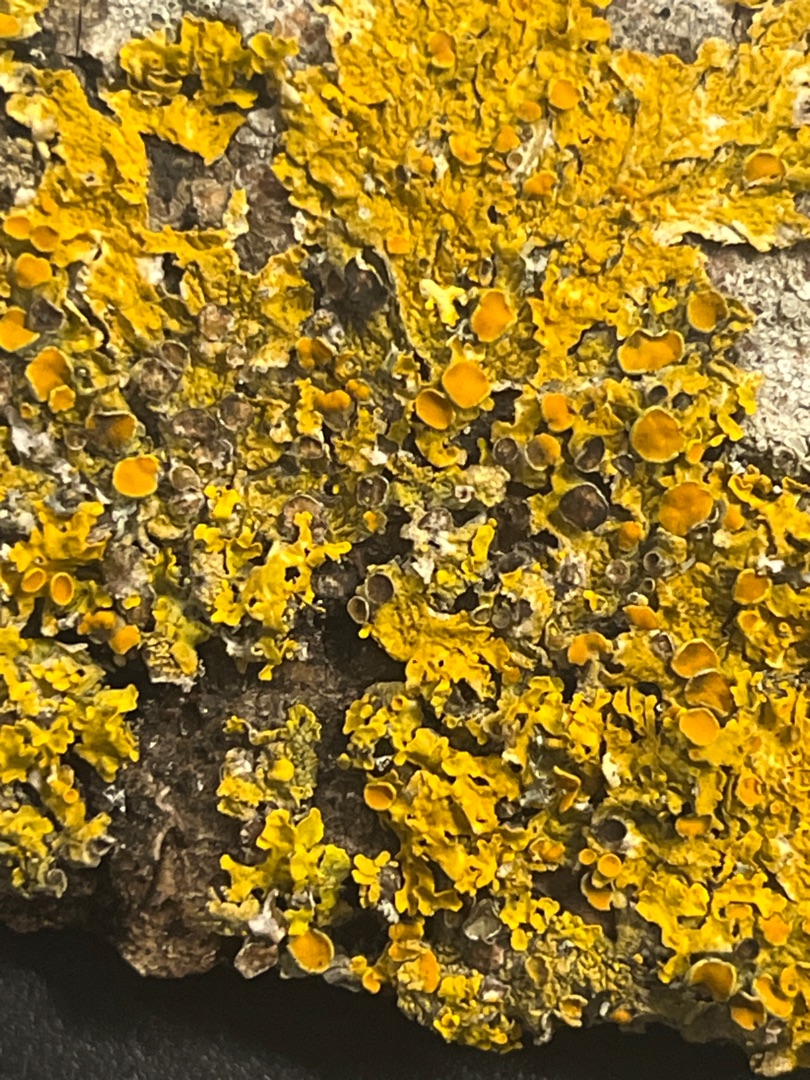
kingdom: Fungi
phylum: Ascomycota
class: Lecanoromycetes
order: Teloschistales
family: Teloschistaceae
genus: Xanthoria
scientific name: Xanthoria parietina
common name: Almindelig væggelav
